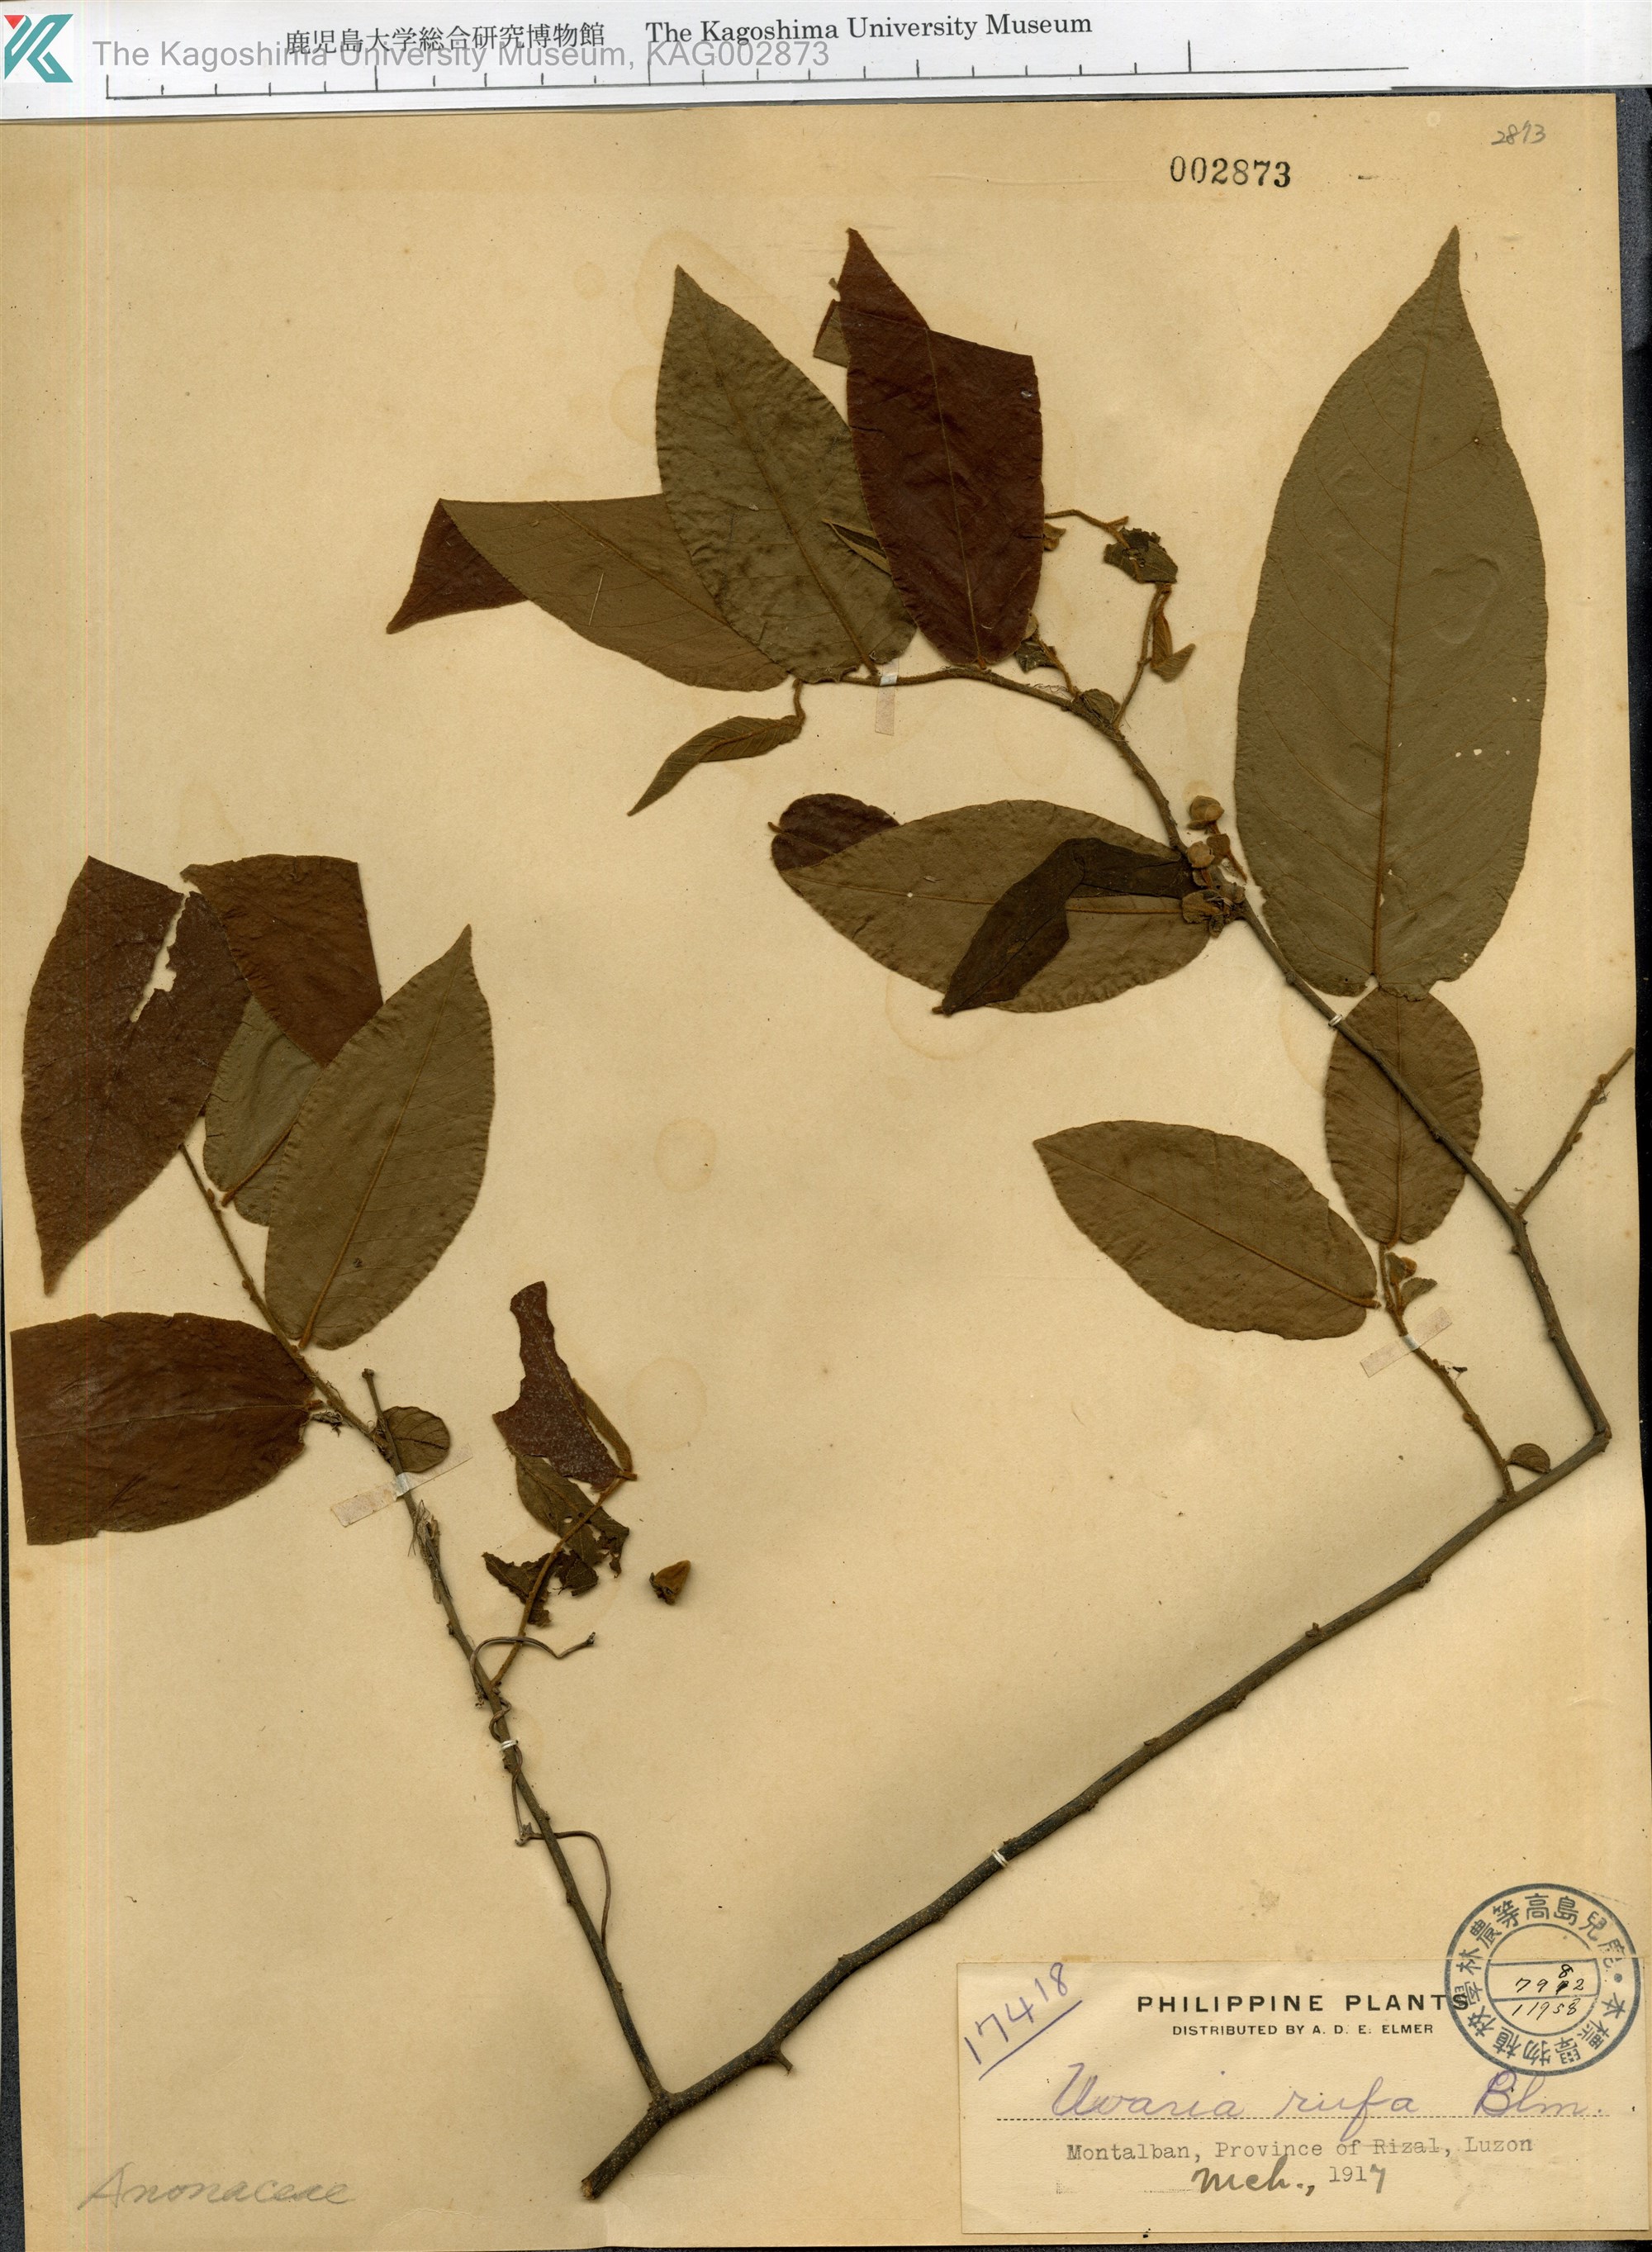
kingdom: Plantae
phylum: Tracheophyta
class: Magnoliopsida
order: Magnoliales
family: Annonaceae
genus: Uvaria
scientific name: Uvaria rufa
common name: Torres strait scrambler
